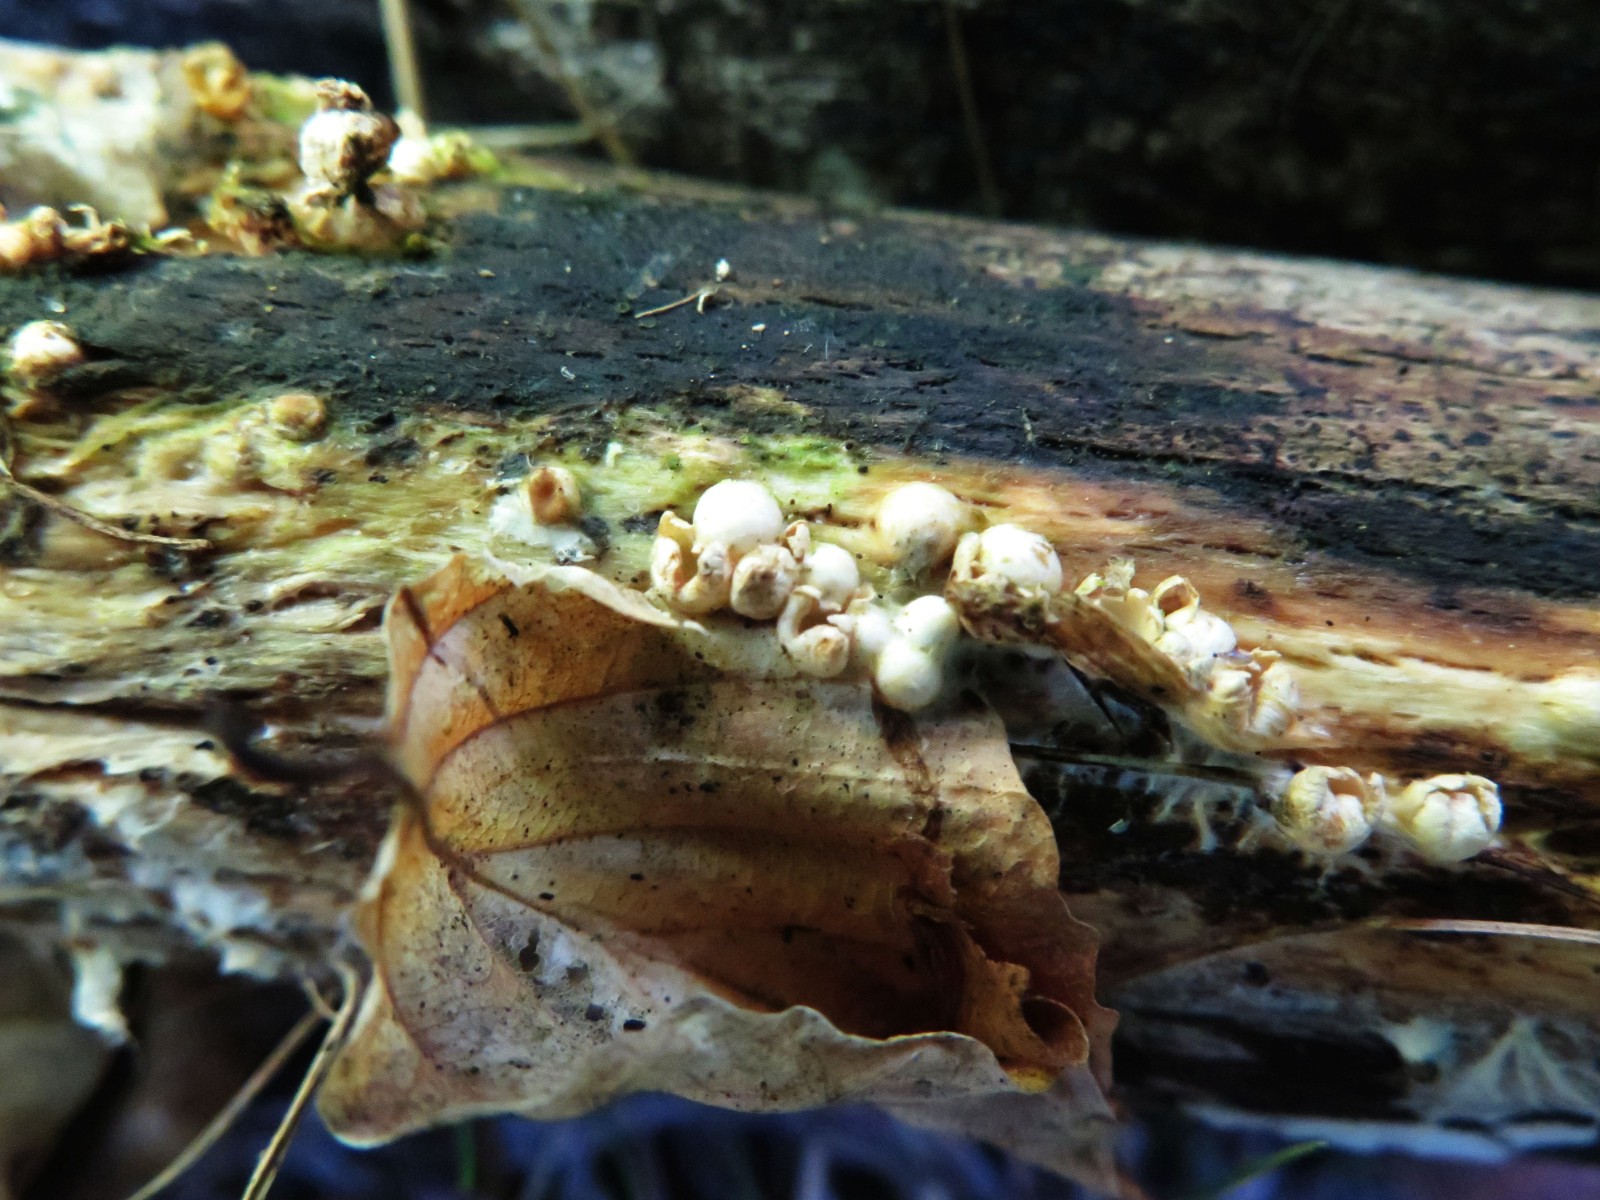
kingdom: Fungi
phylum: Basidiomycota
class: Agaricomycetes
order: Geastrales
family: Geastraceae
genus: Sphaerobolus
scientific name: Sphaerobolus stellatus
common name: bombekaster
